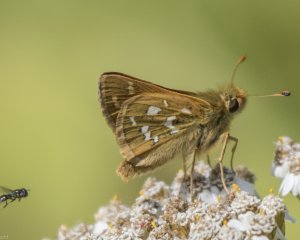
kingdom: Animalia
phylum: Arthropoda
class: Insecta
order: Lepidoptera
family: Hesperiidae
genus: Hesperia
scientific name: Hesperia comma
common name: Common Branded Skipper
